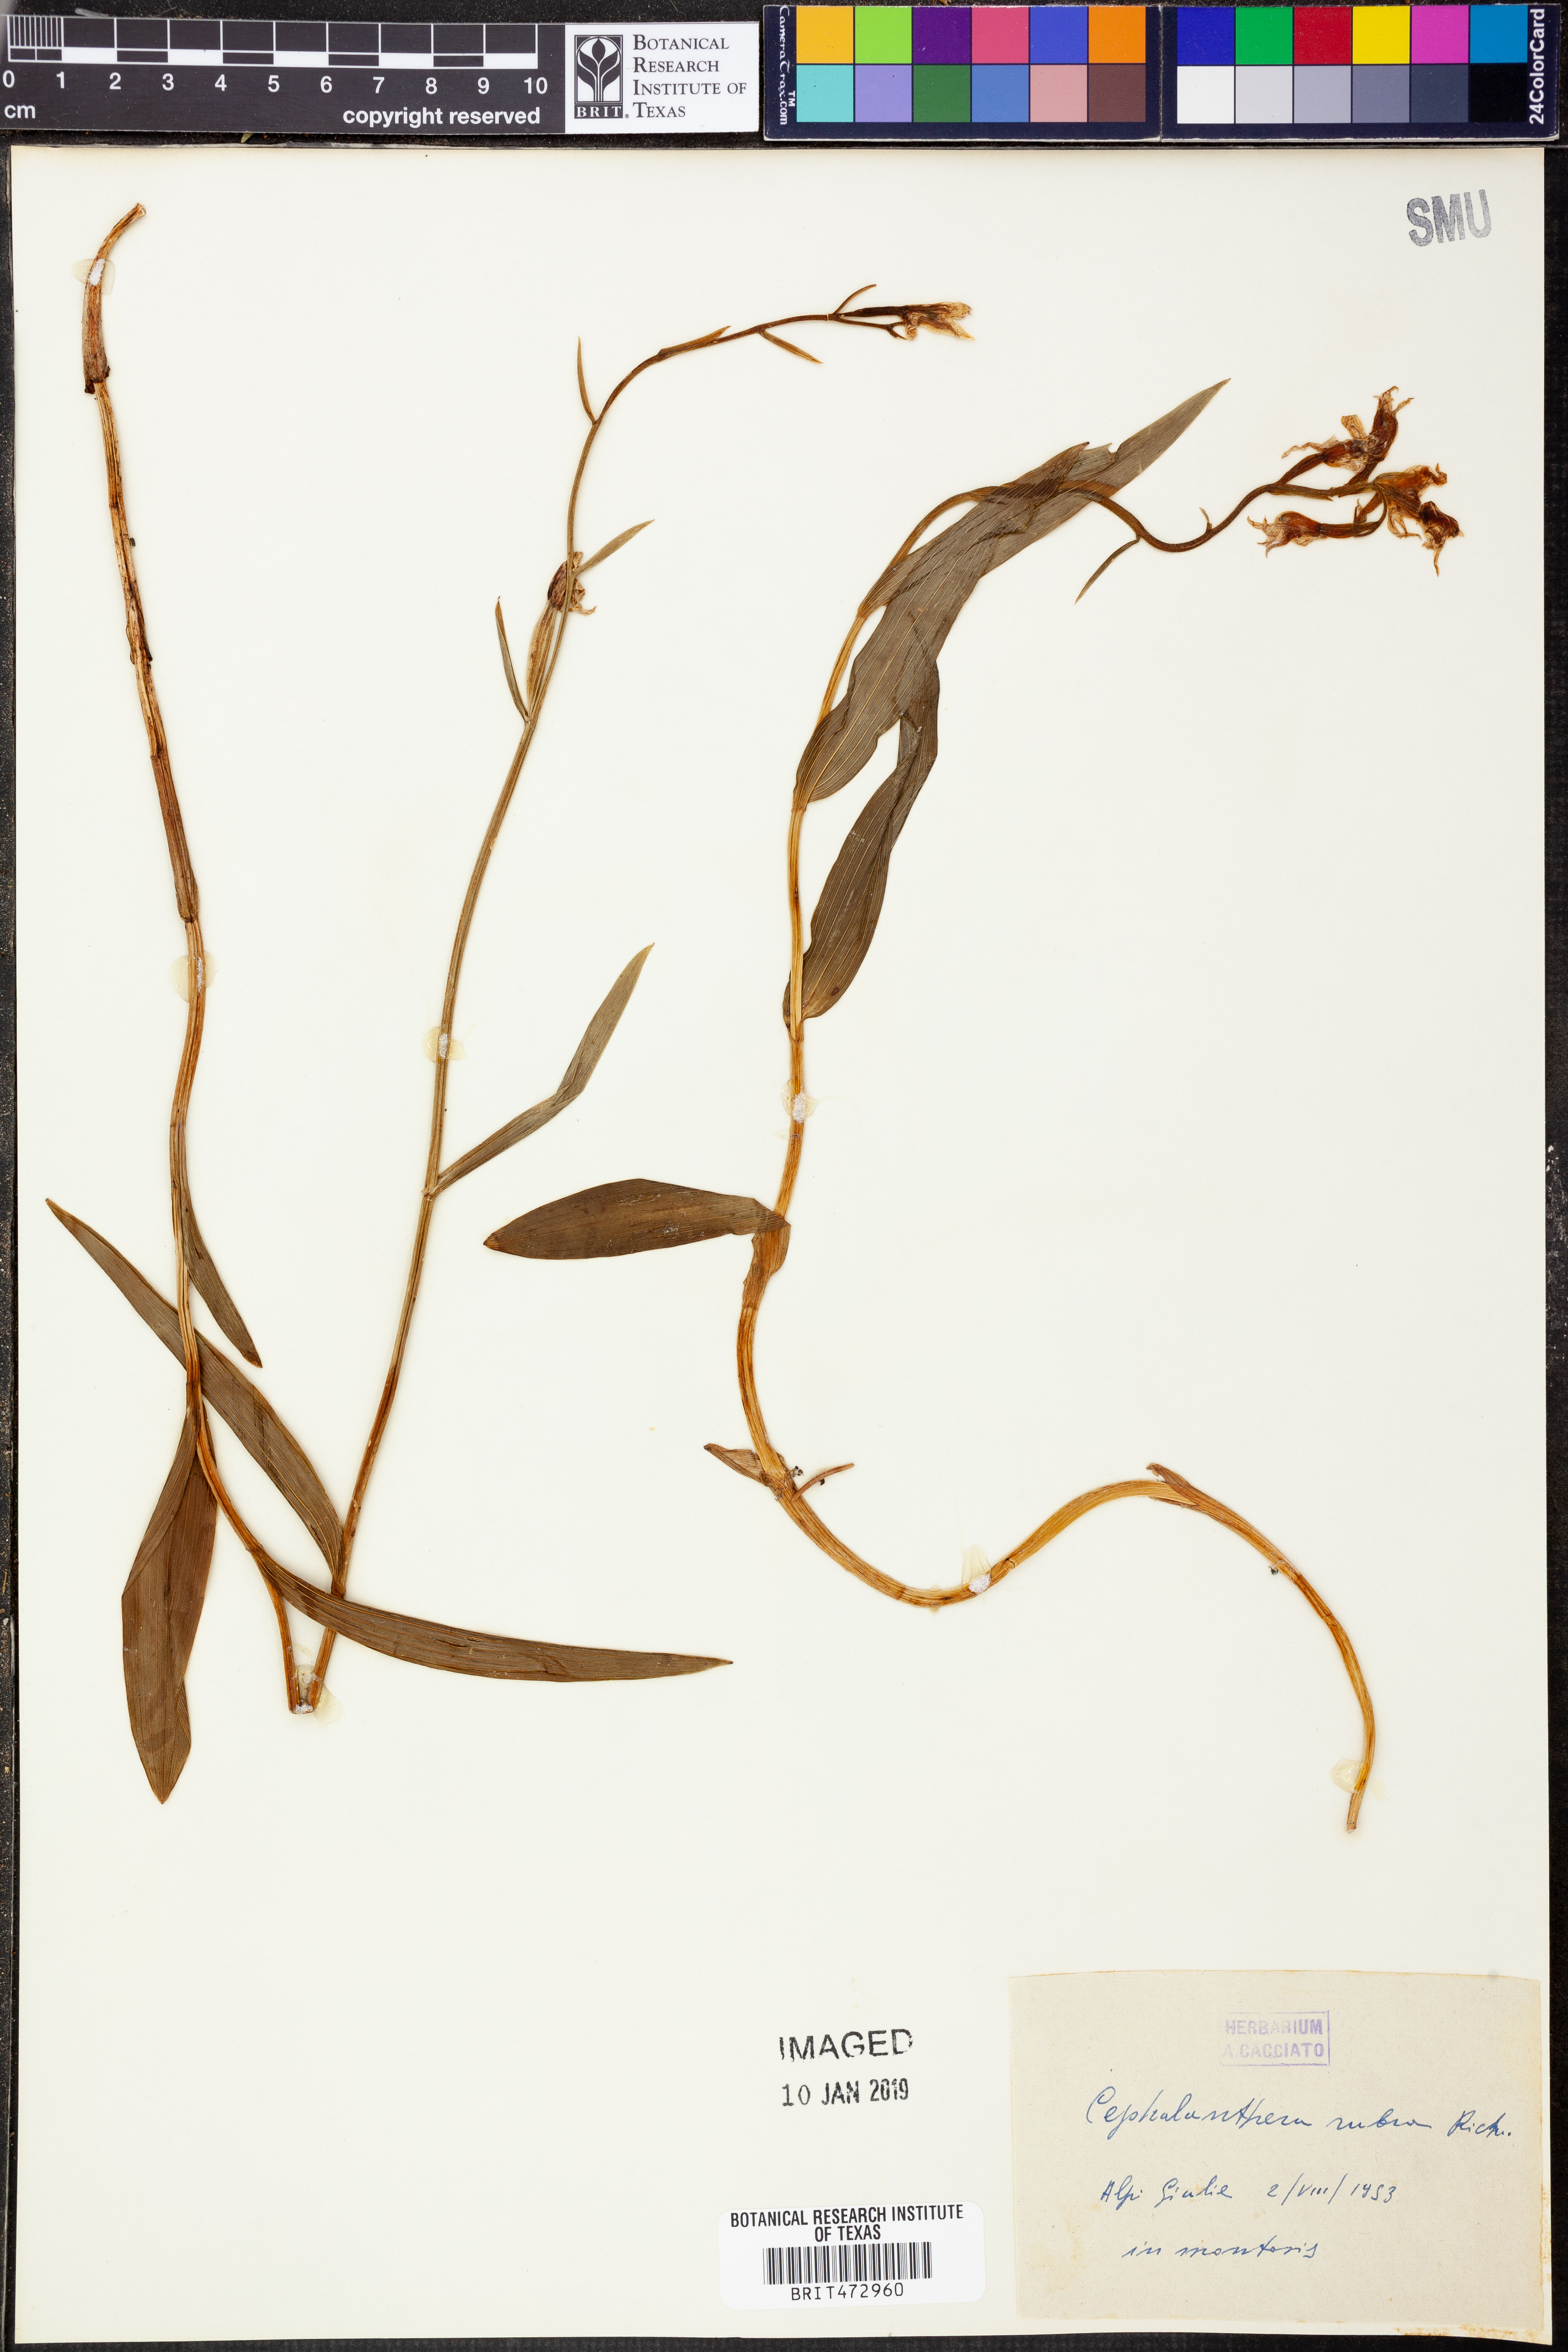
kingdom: Plantae
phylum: Tracheophyta
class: Liliopsida
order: Asparagales
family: Orchidaceae
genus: Cephalanthera
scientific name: Cephalanthera rubra
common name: Red helleborine
